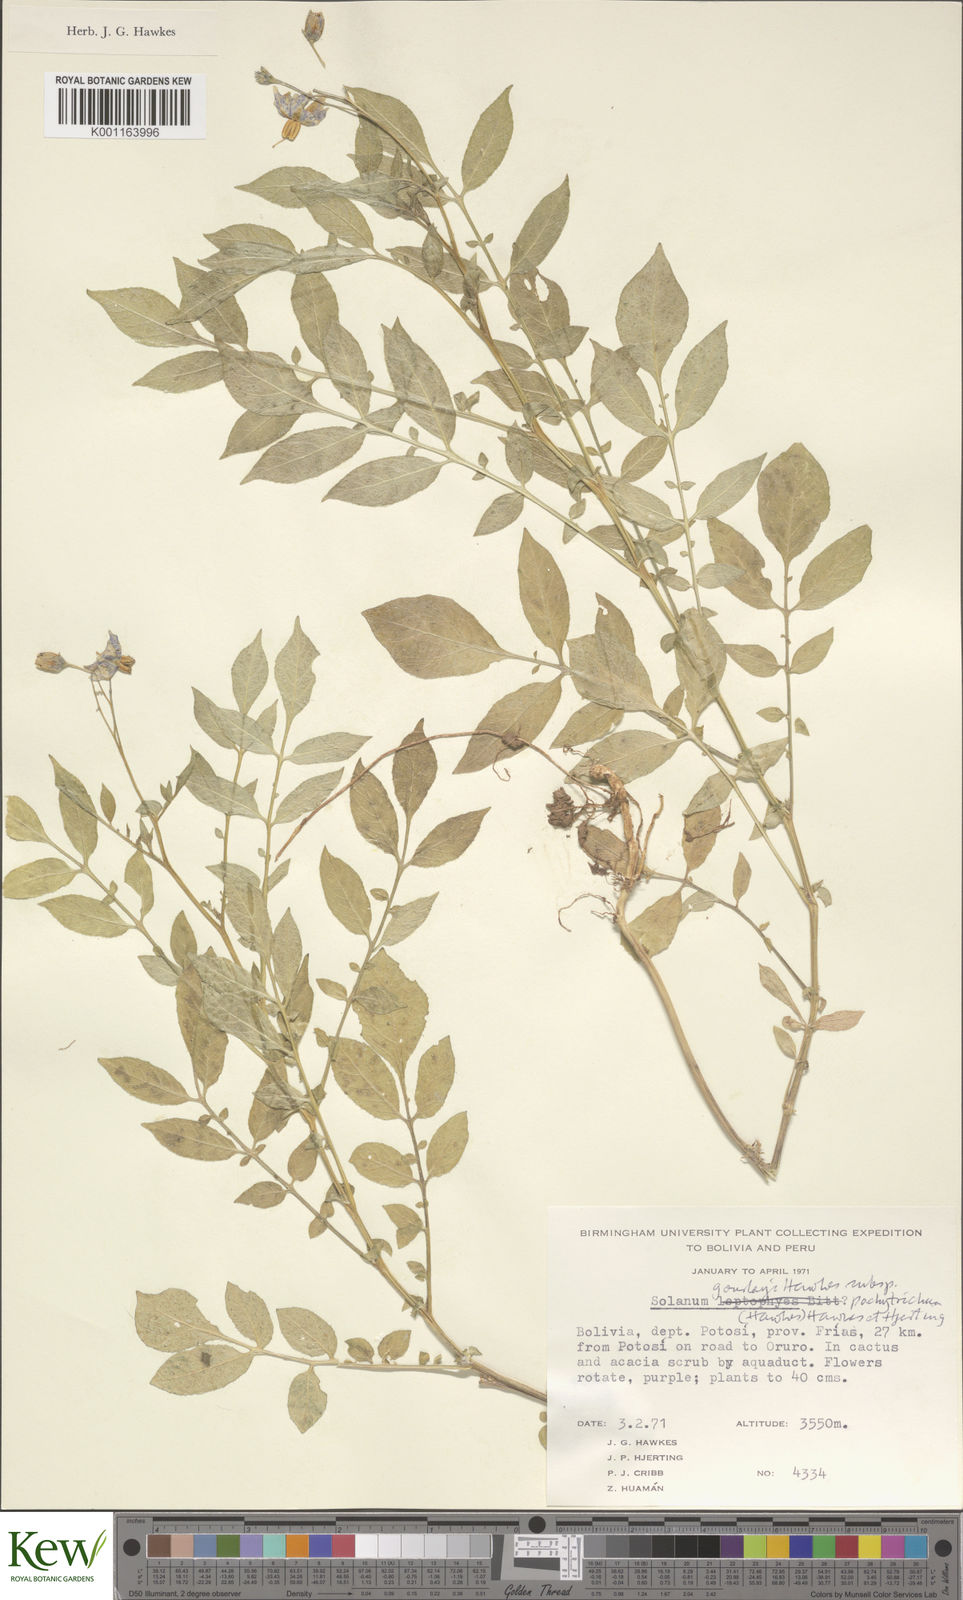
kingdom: Plantae
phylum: Tracheophyta
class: Magnoliopsida
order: Solanales
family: Solanaceae
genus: Solanum
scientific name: Solanum brevicaule
